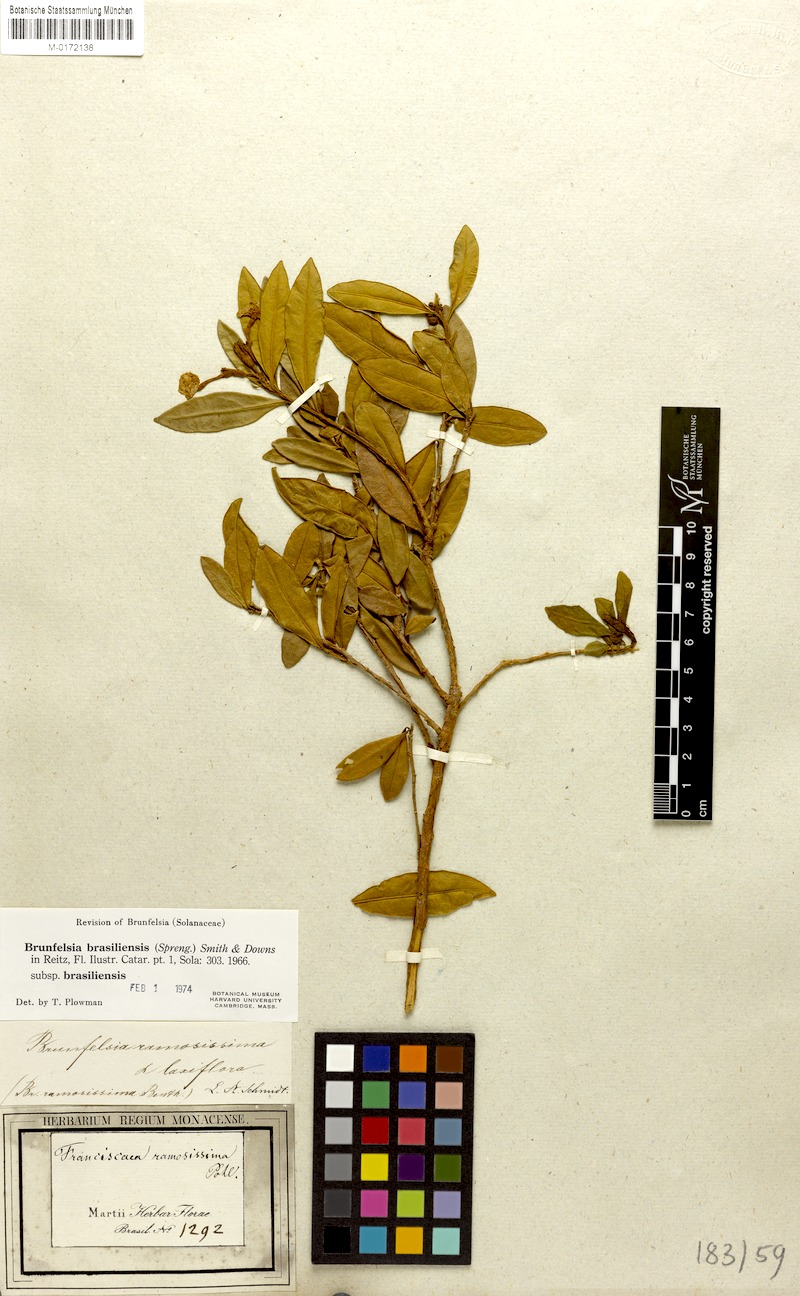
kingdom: Plantae
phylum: Tracheophyta
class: Magnoliopsida
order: Solanales
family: Solanaceae
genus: Brunfelsia
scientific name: Brunfelsia brasiliensis
